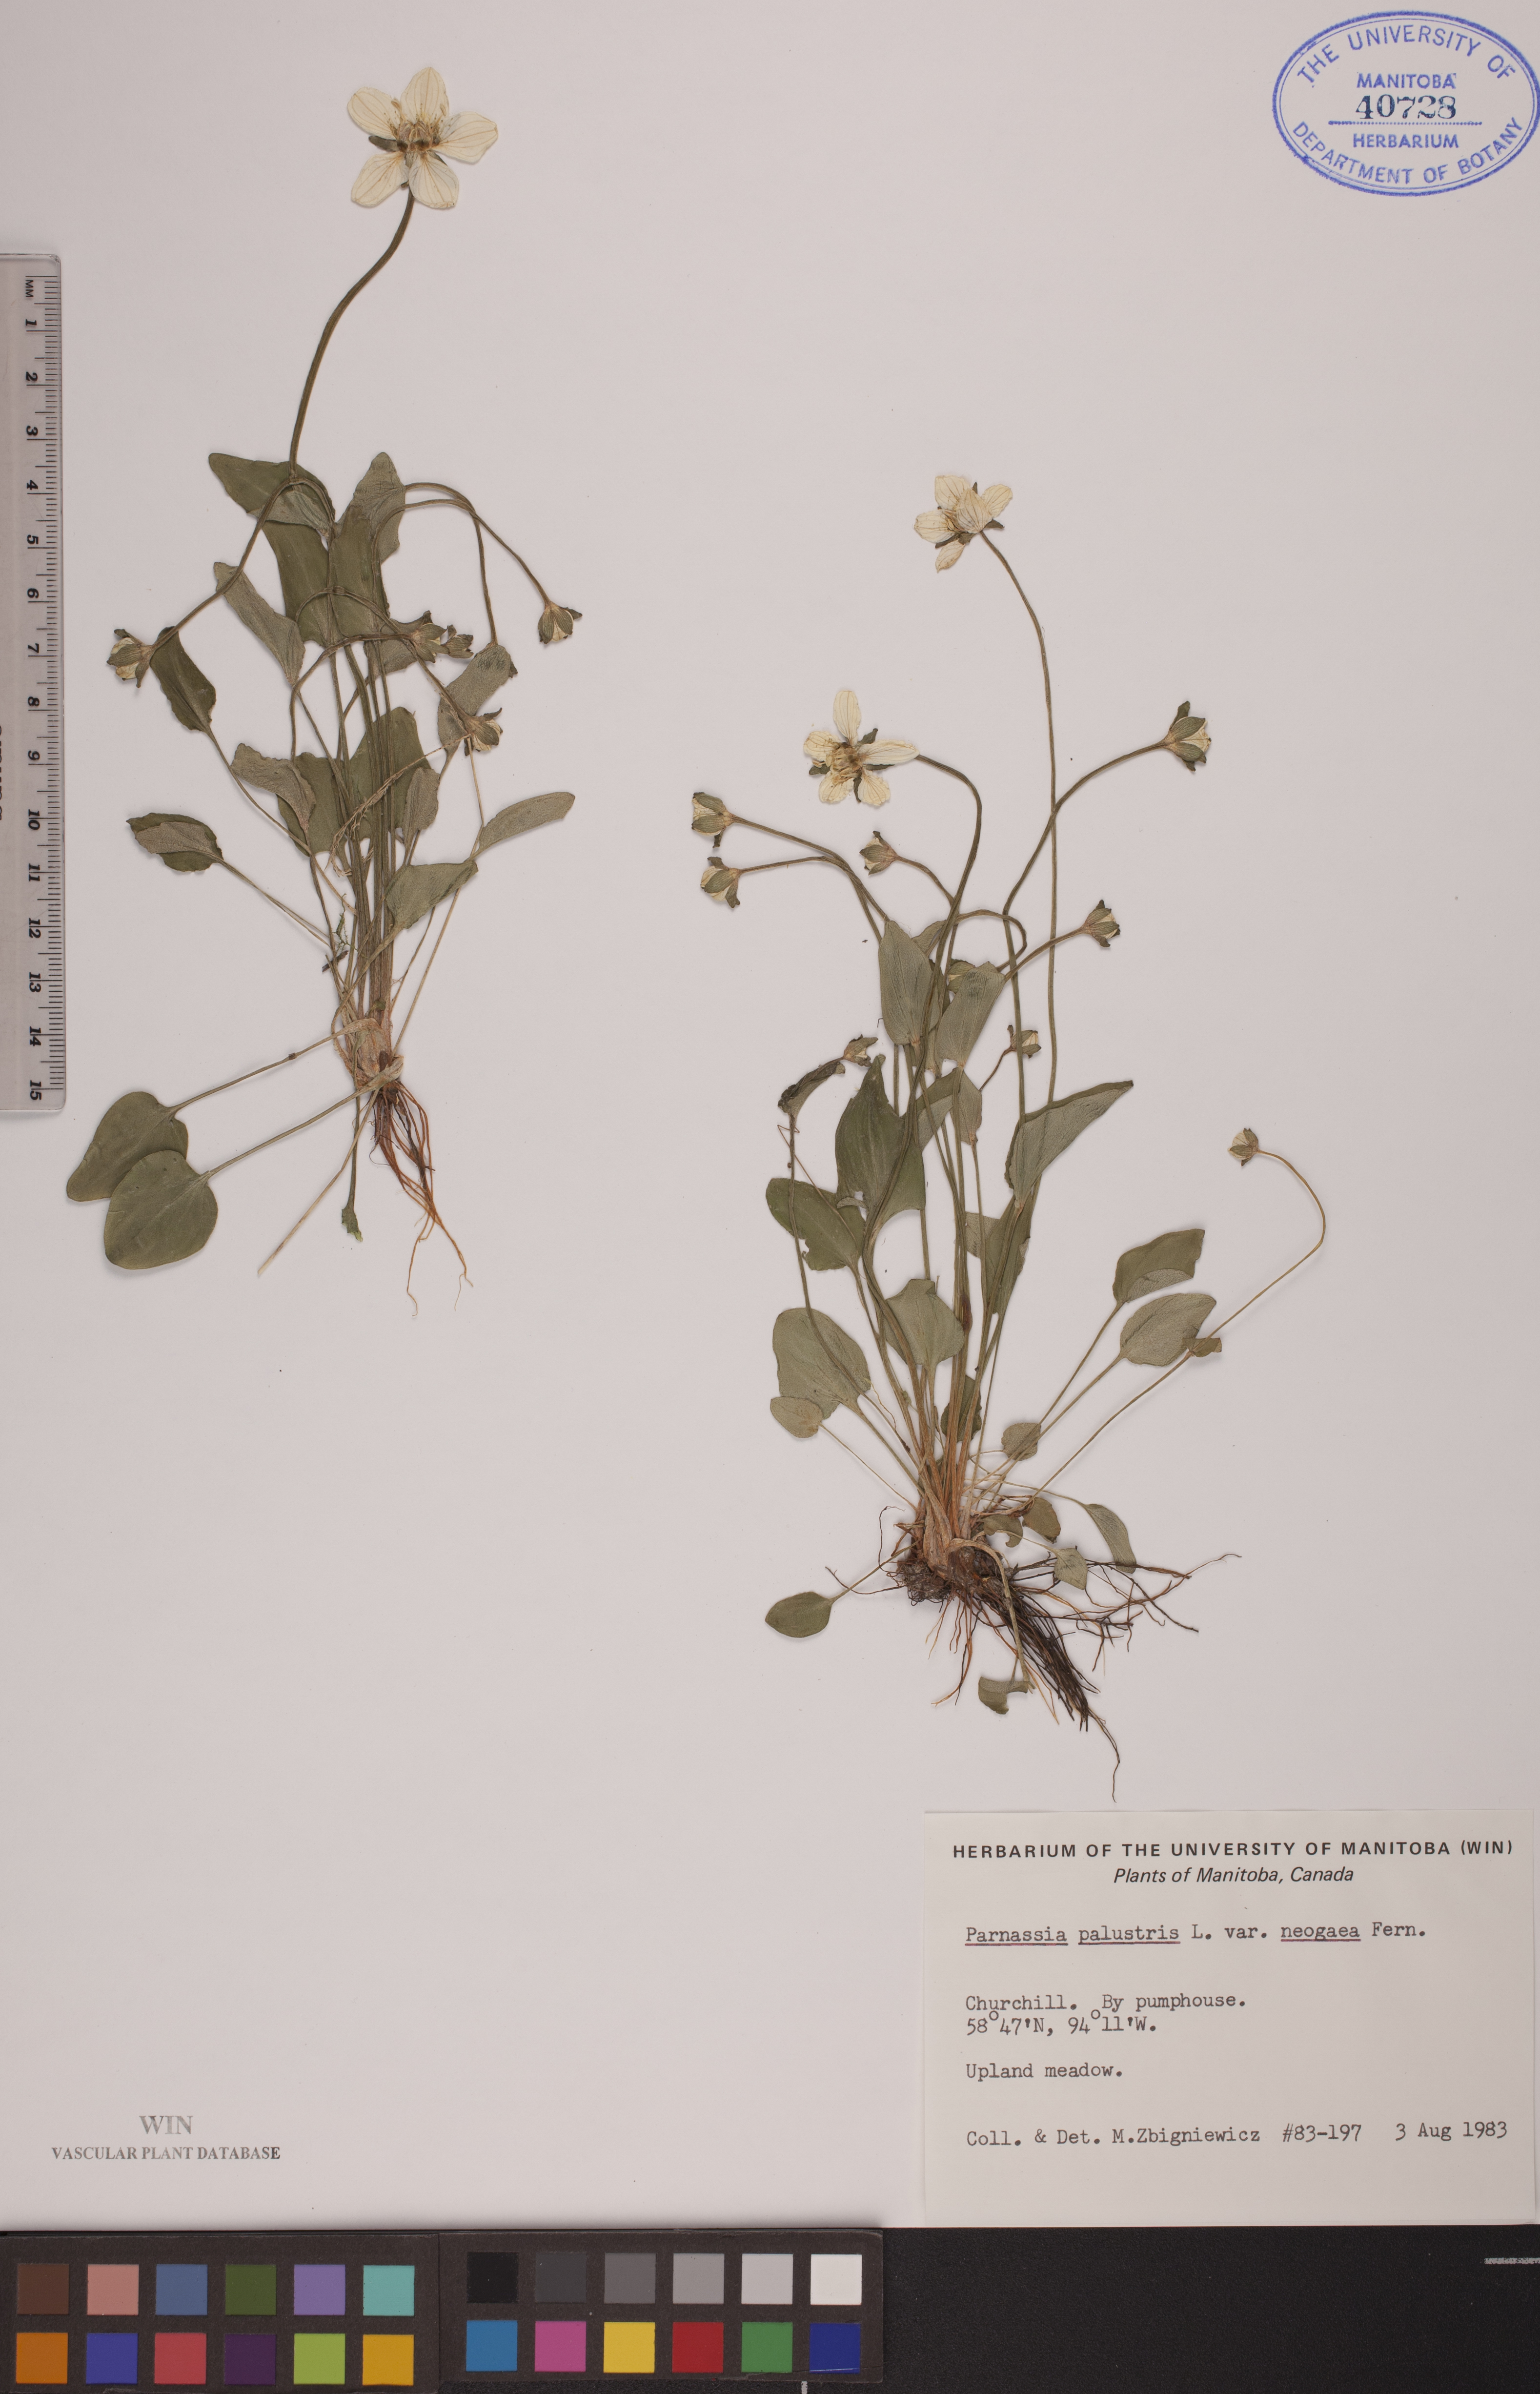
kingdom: Plantae
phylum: Tracheophyta
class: Magnoliopsida
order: Celastrales
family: Parnassiaceae
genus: Parnassia
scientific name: Parnassia palustris
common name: Grass-of-parnassus
